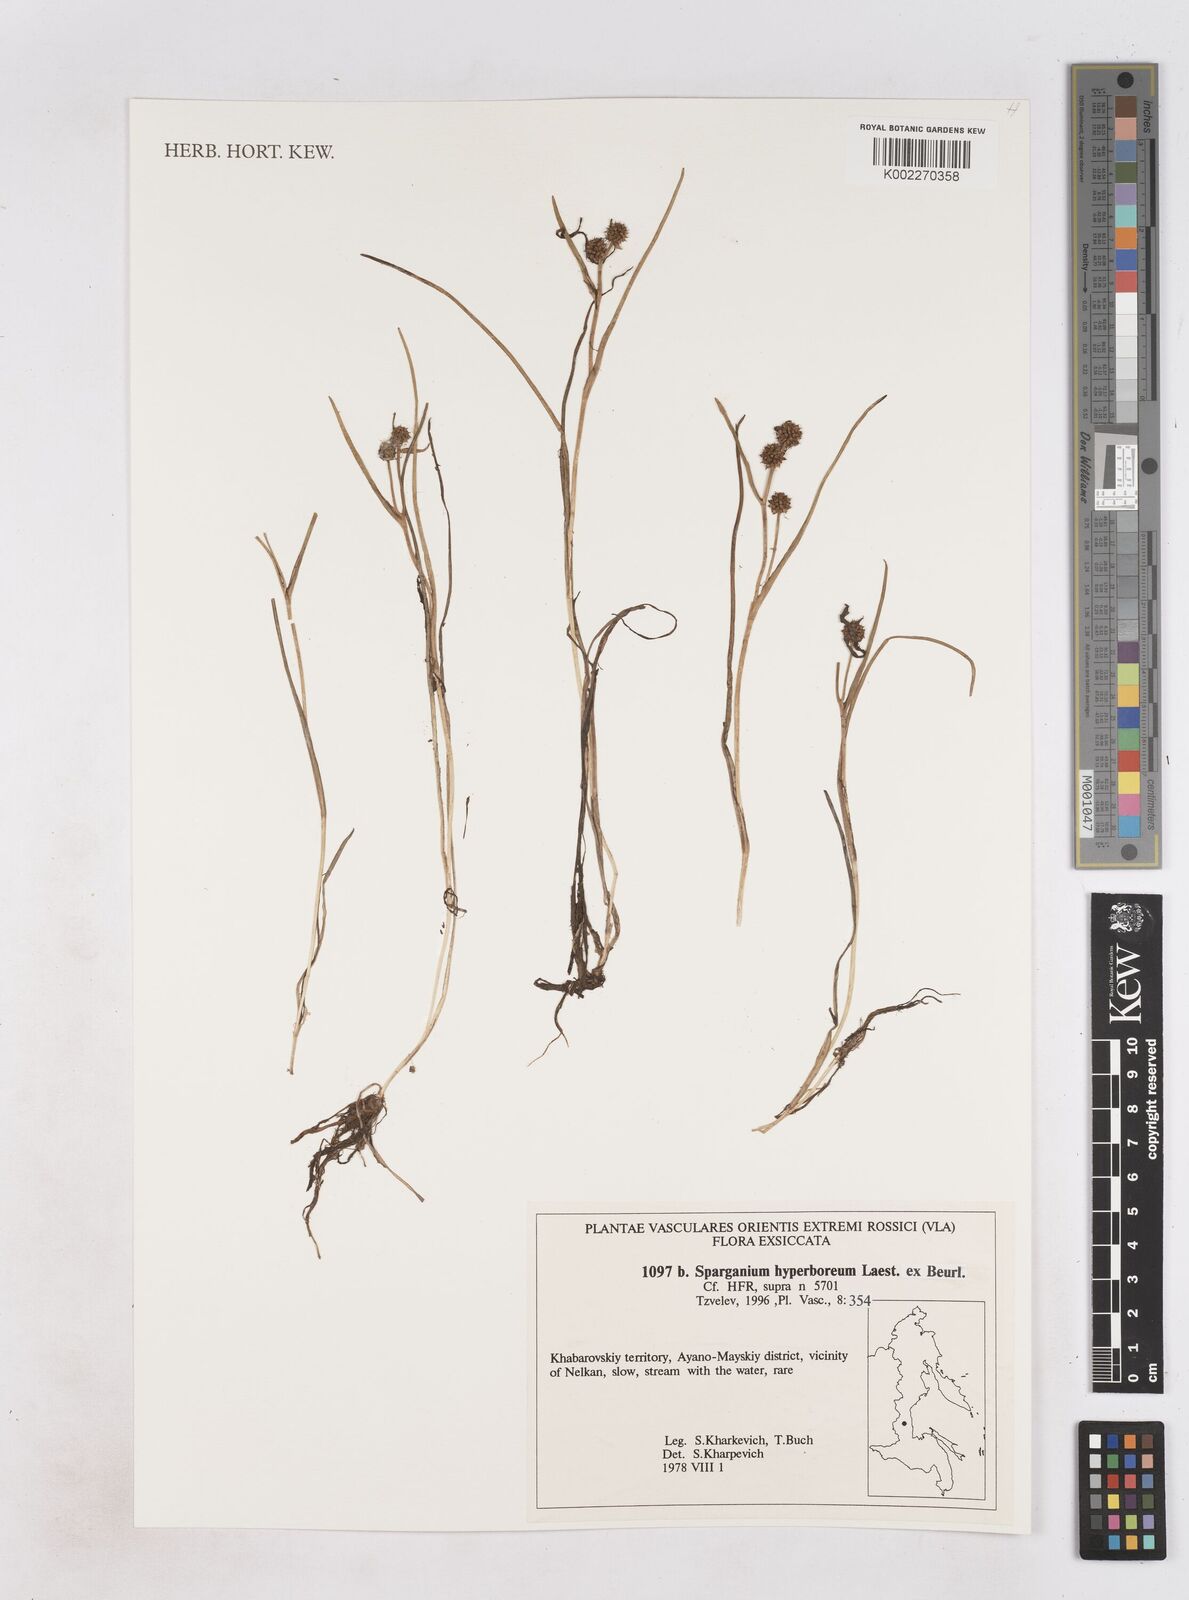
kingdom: Plantae
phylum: Tracheophyta
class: Liliopsida
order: Poales
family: Typhaceae
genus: Sparganium
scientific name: Sparganium hyperboreum
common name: Arctic burreed
